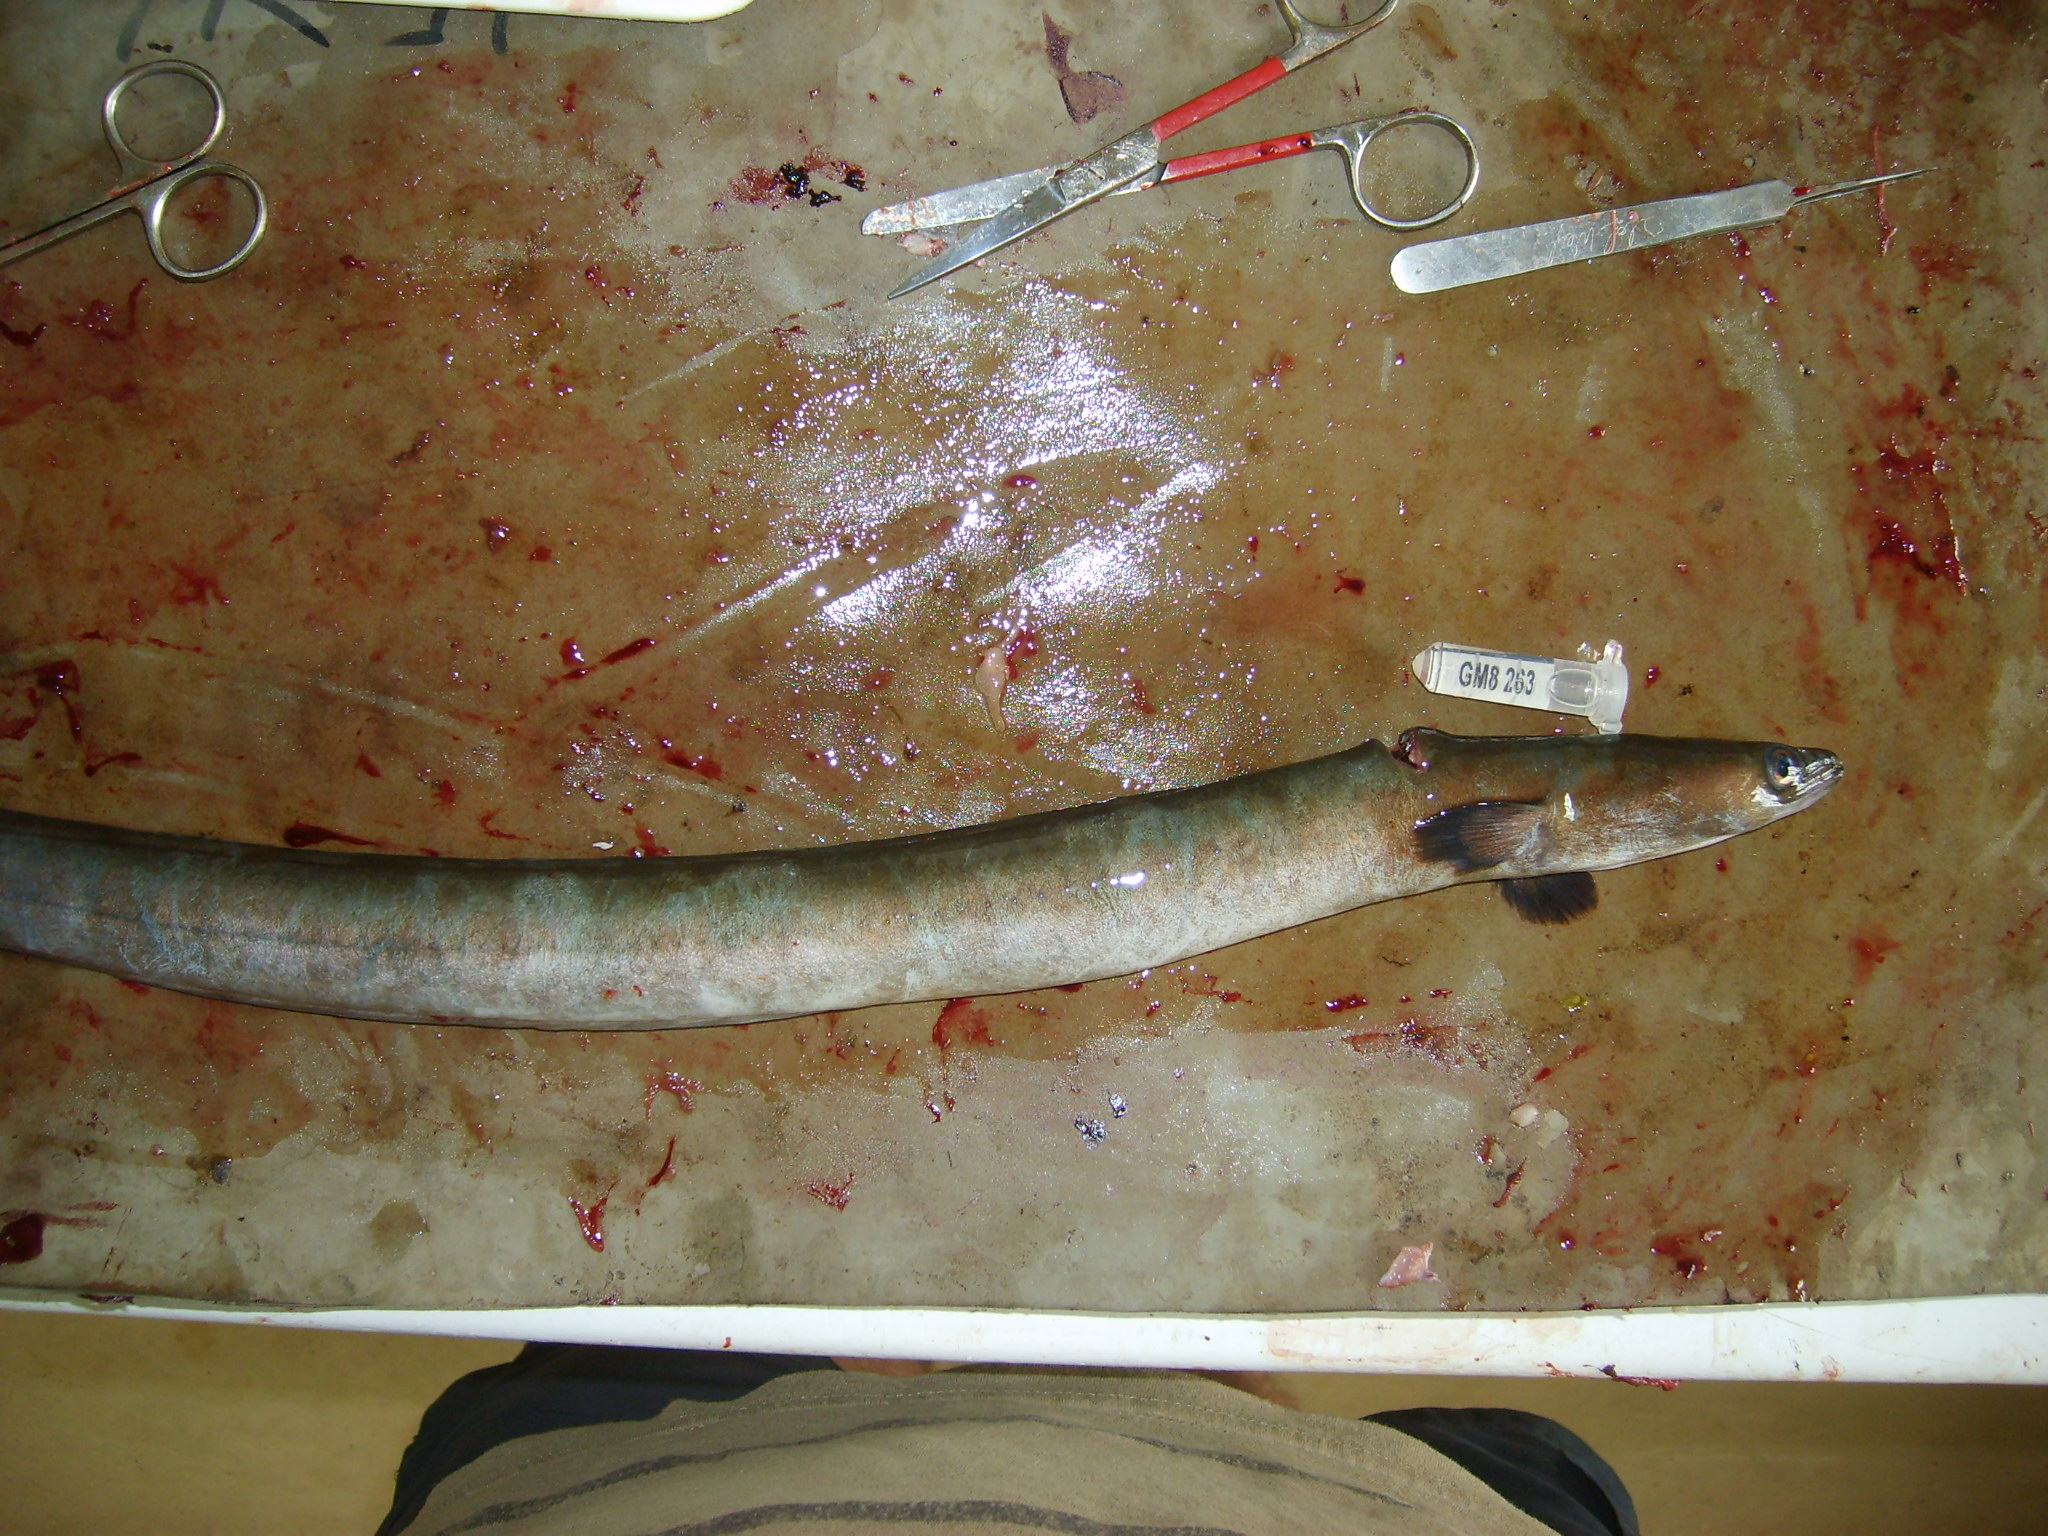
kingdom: Animalia
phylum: Chordata
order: Anguilliformes
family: Anguillidae
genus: Anguilla
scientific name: Anguilla mossambica
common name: African longfin eel
